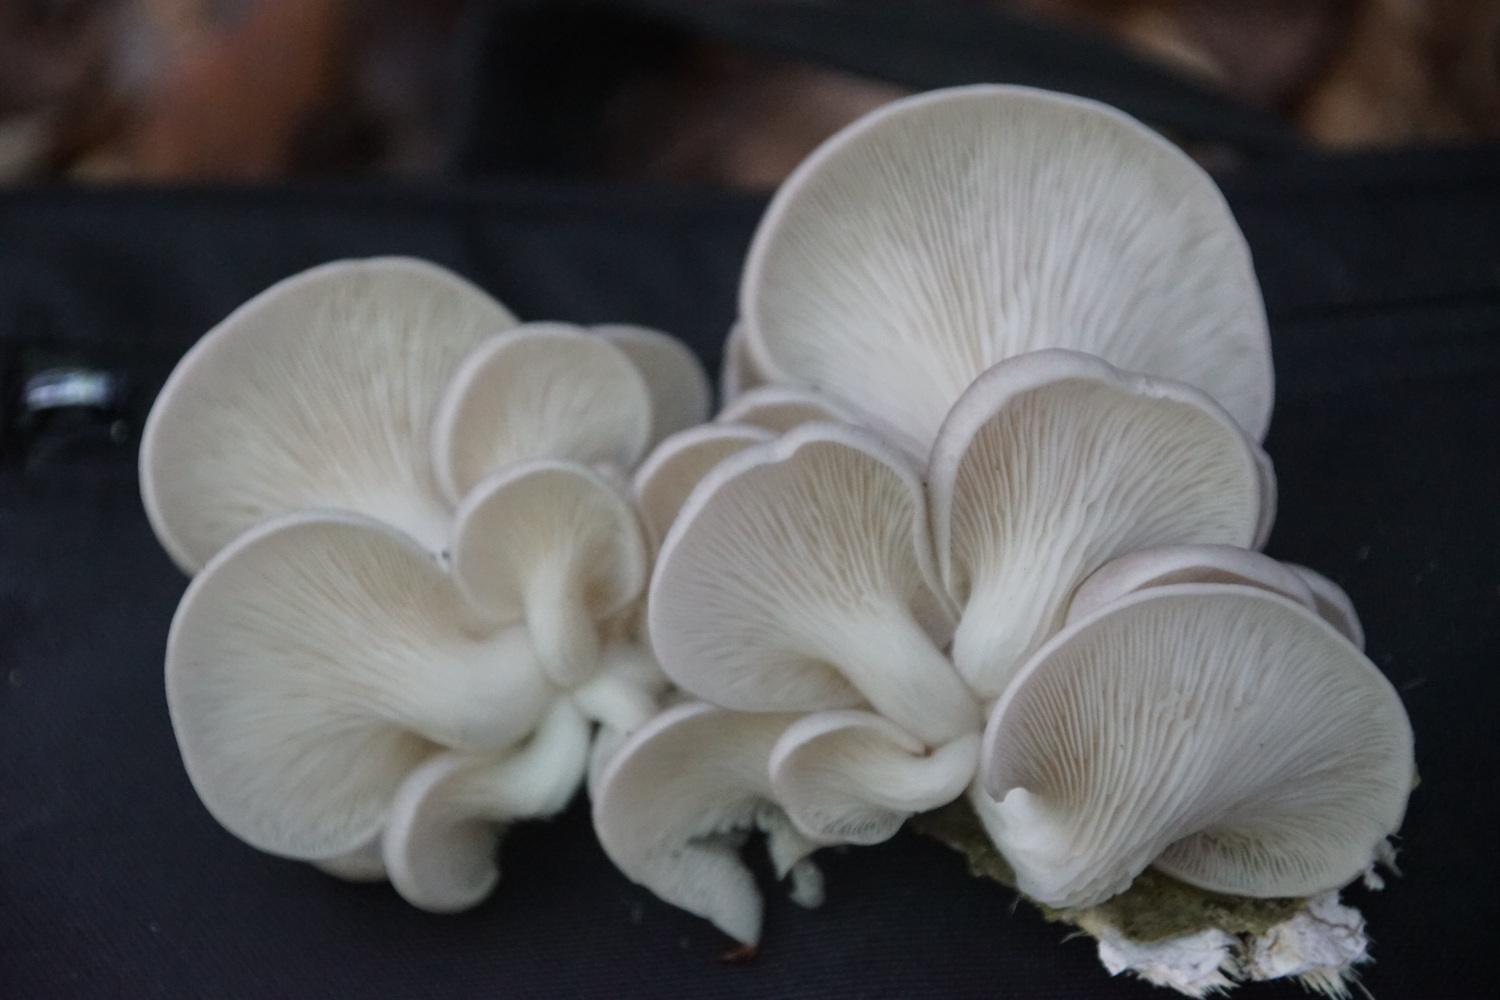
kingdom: Fungi
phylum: Basidiomycota
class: Agaricomycetes
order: Agaricales
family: Pleurotaceae
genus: Pleurotus
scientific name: Pleurotus pulmonarius
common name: sommer-østershat
